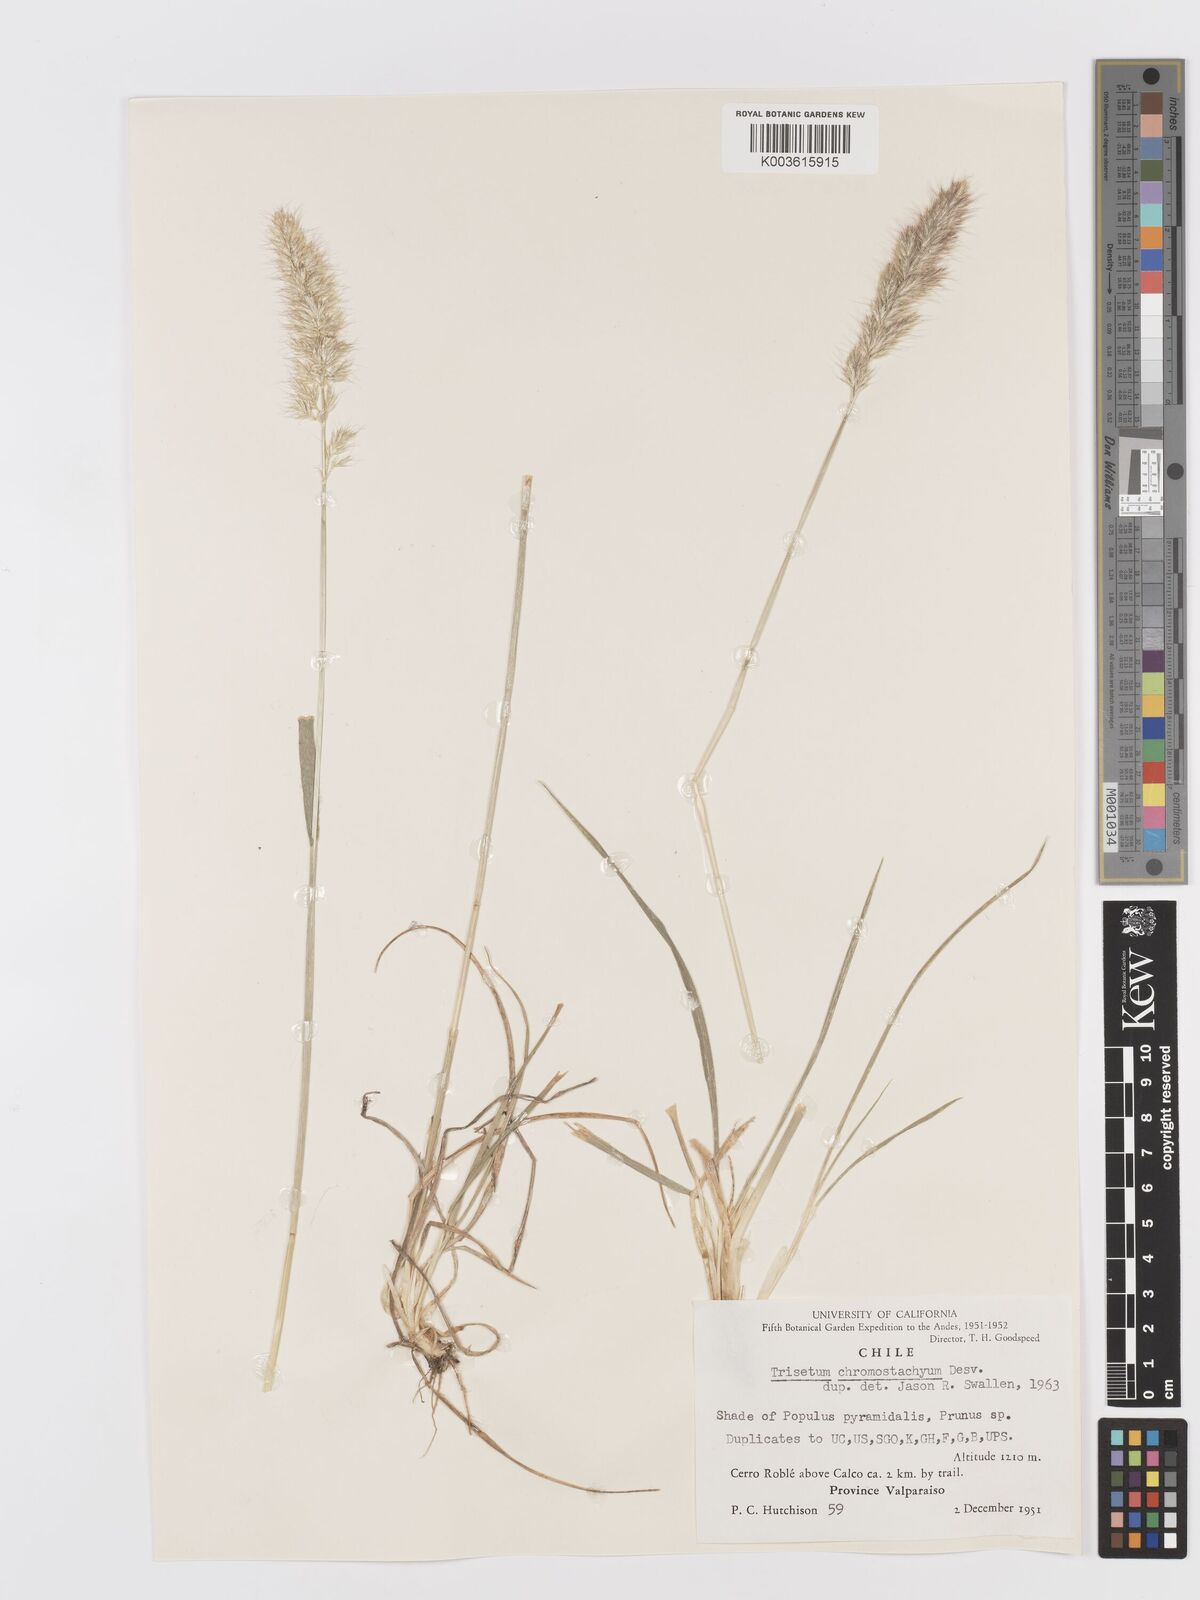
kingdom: Plantae
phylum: Tracheophyta
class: Liliopsida
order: Poales
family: Poaceae
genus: Trisetum
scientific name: Trisetum caudulatum
